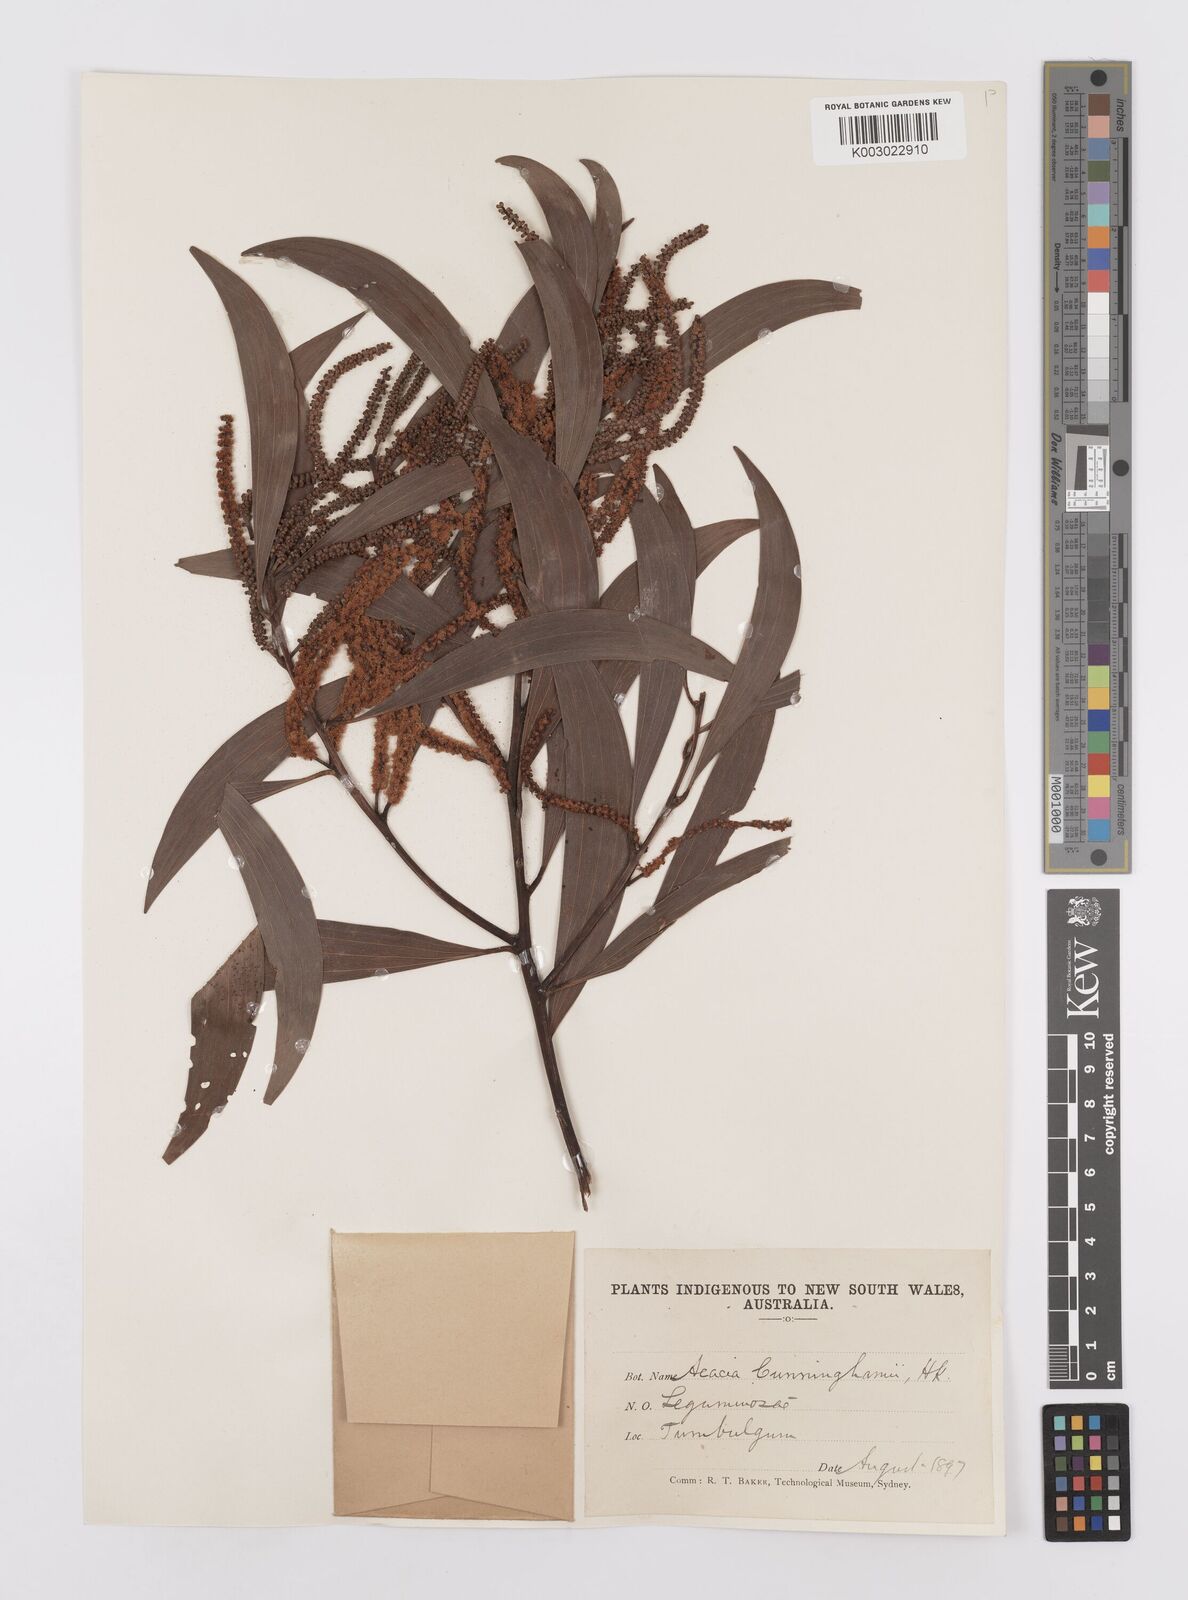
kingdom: Plantae
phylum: Tracheophyta
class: Magnoliopsida
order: Fabales
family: Fabaceae
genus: Acacia
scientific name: Acacia longispicata
